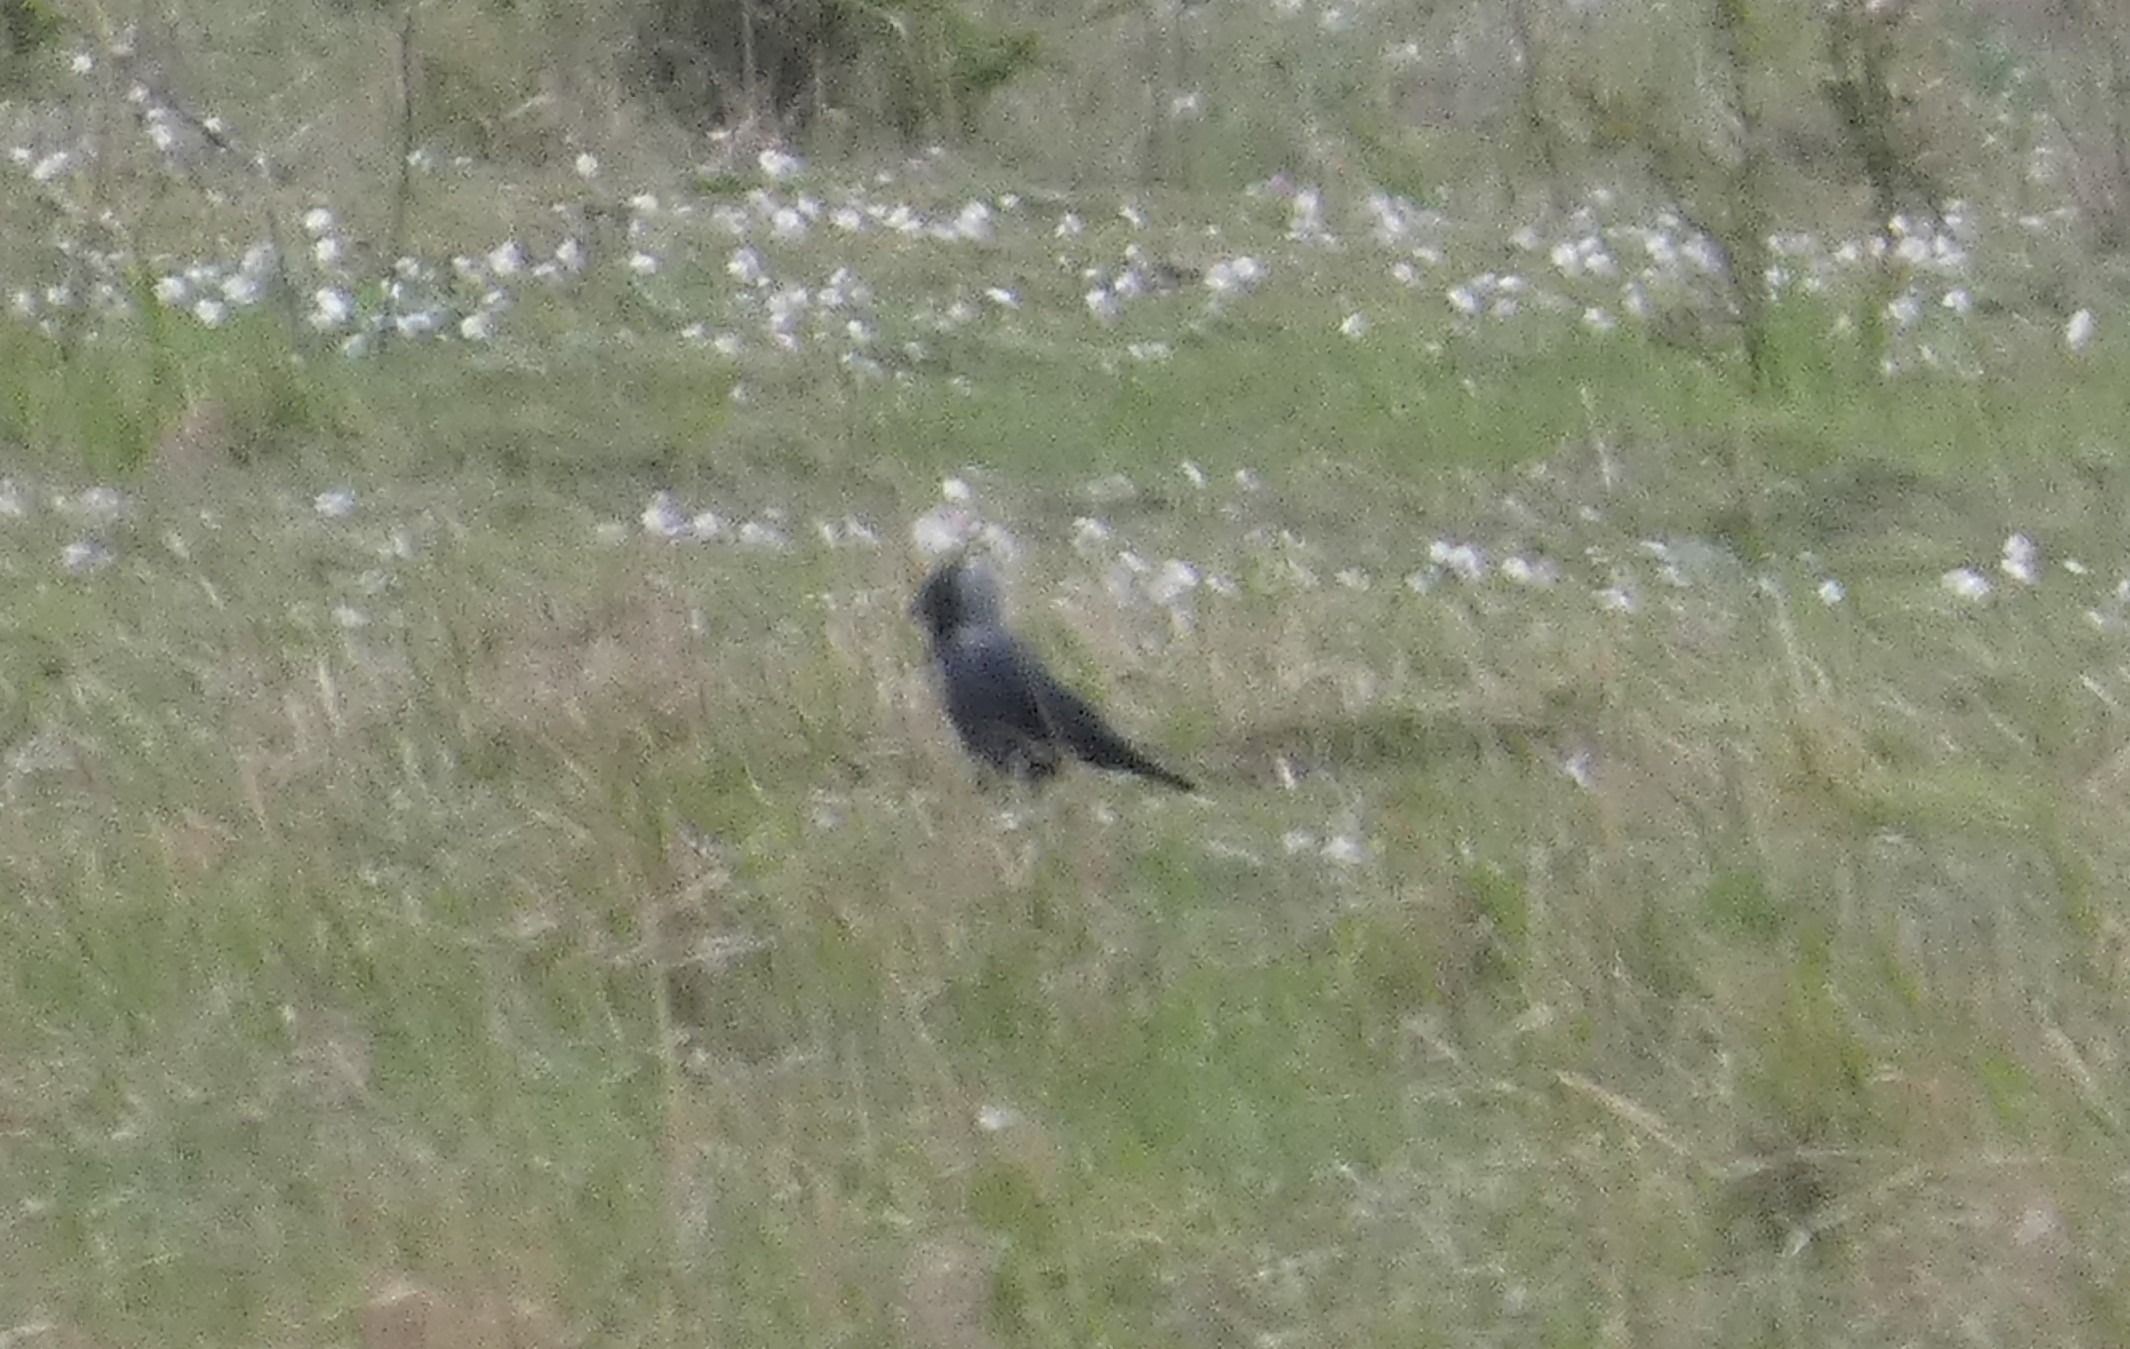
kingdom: Animalia
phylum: Chordata
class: Aves
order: Passeriformes
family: Corvidae
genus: Coloeus
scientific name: Coloeus monedula
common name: Allike
